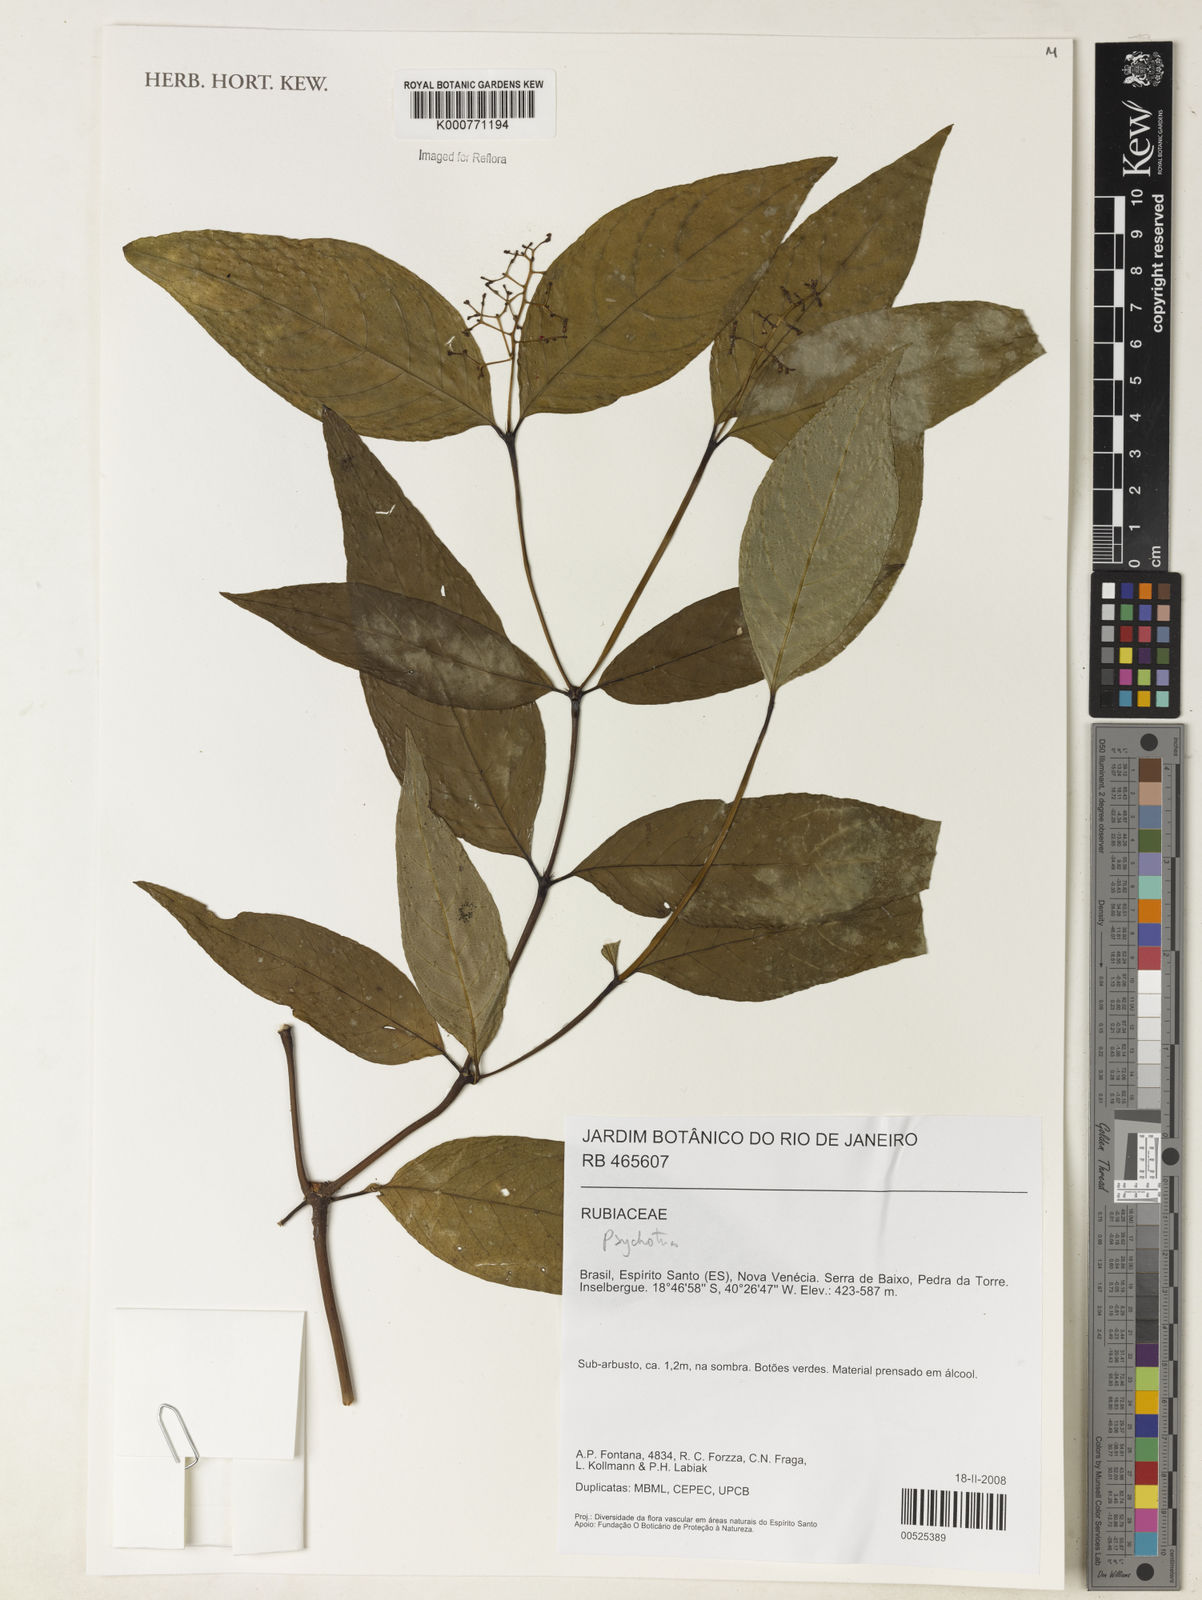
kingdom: Plantae
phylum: Tracheophyta
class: Magnoliopsida
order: Gentianales
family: Rubiaceae
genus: Psychotria
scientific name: Psychotria
